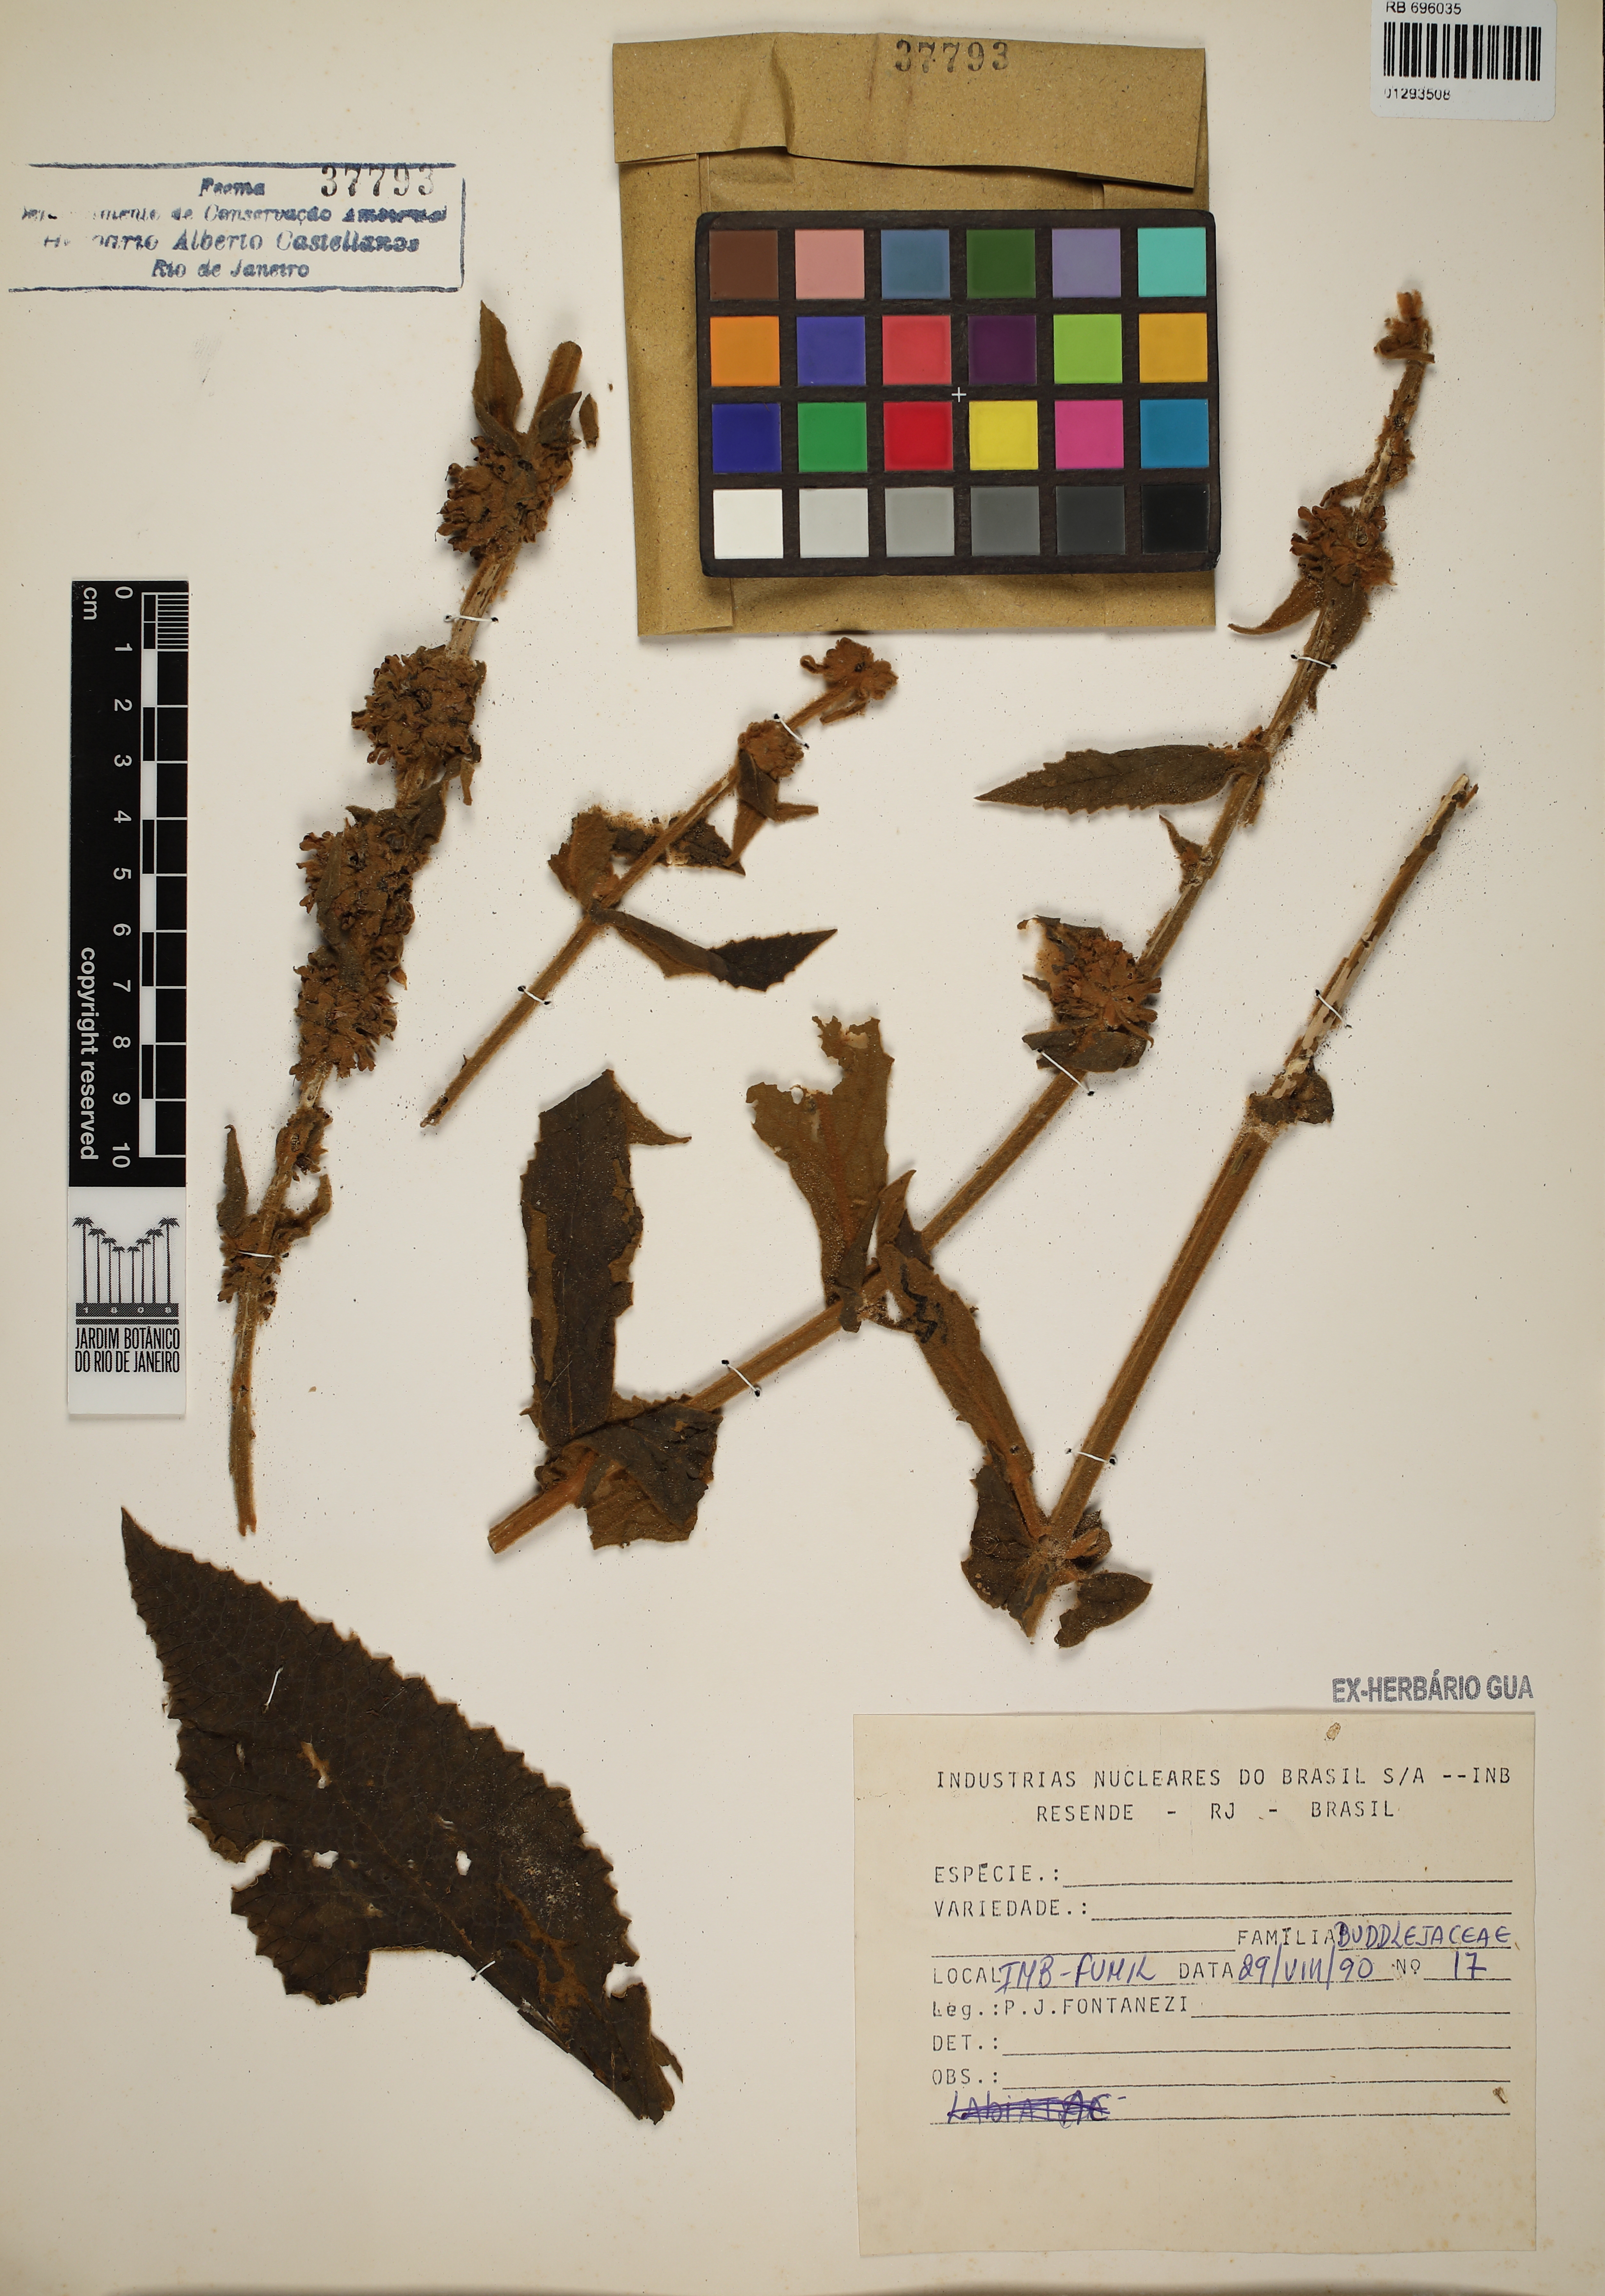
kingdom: Plantae
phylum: Tracheophyta
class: Magnoliopsida
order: Lamiales
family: Scrophulariaceae
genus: Buddleja
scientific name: Buddleja
